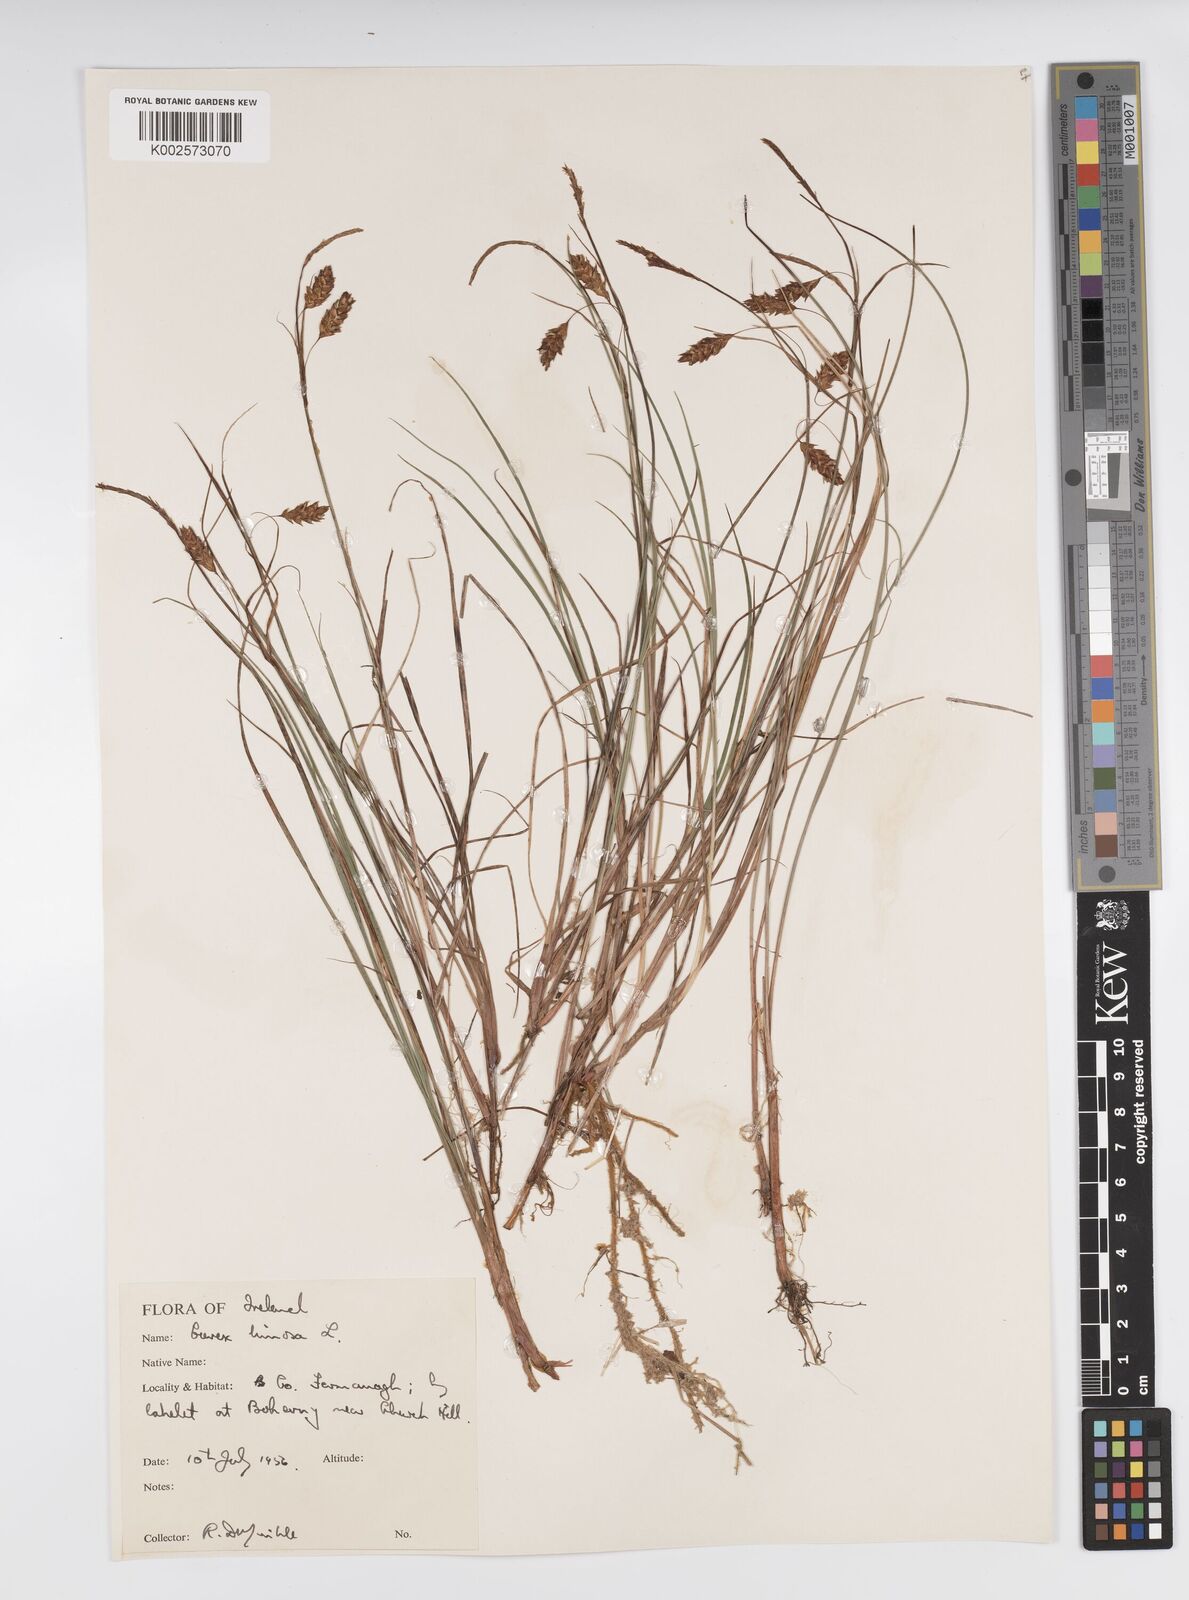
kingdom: Plantae
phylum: Tracheophyta
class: Liliopsida
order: Poales
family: Cyperaceae
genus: Carex
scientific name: Carex limosa
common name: Bog sedge
